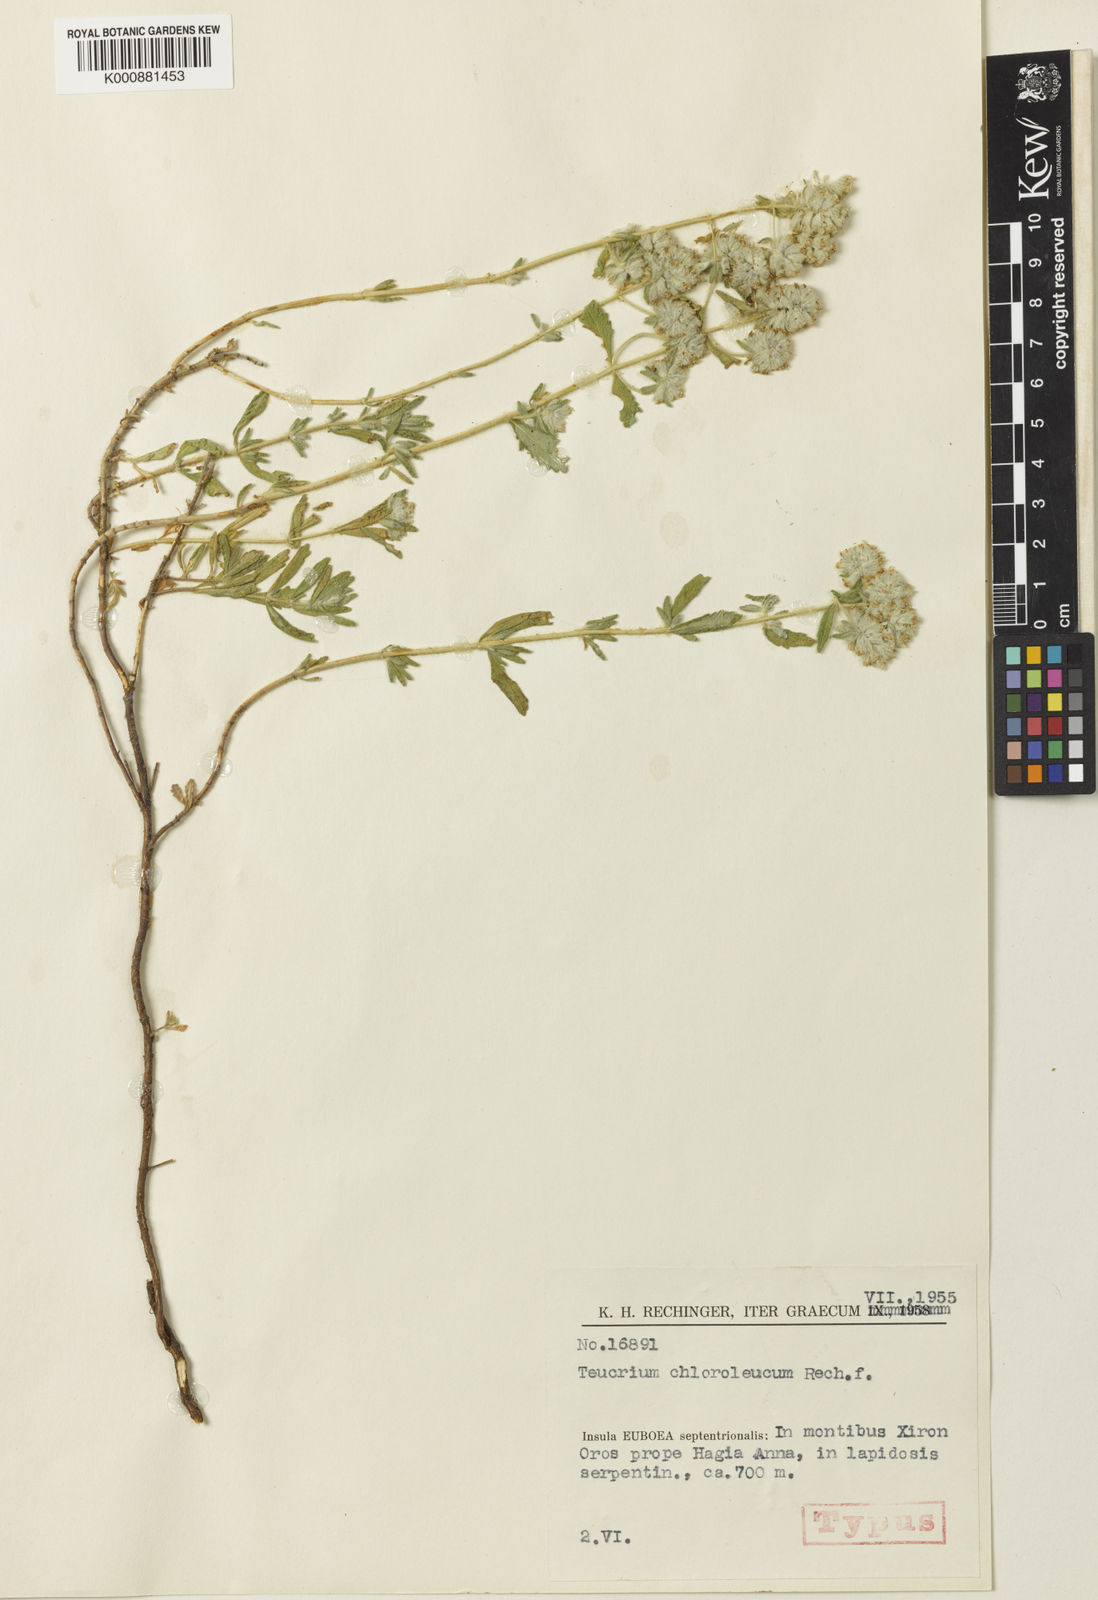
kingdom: Plantae
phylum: Tracheophyta
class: Magnoliopsida
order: Lamiales
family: Lamiaceae
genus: Teucrium
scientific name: Teucrium polium
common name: Poley
